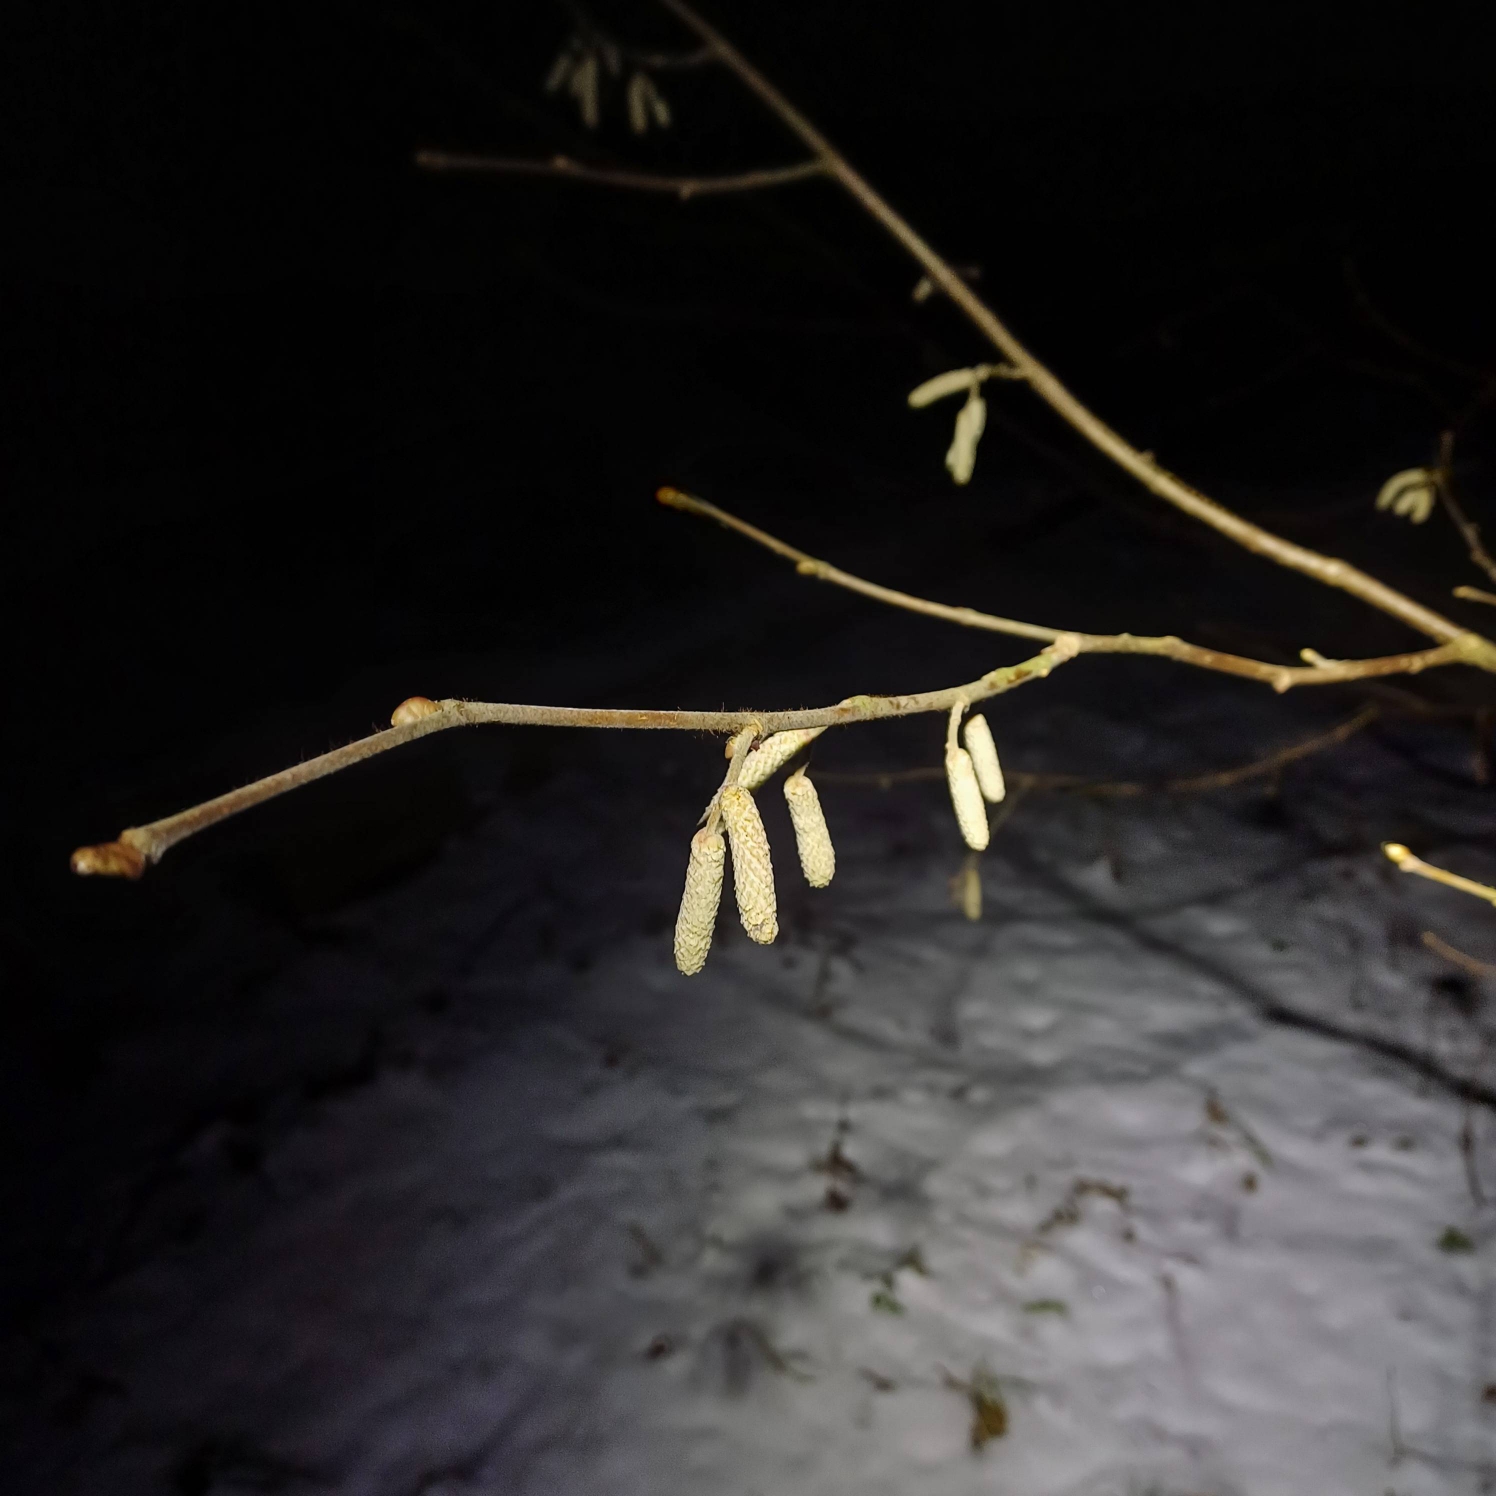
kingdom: Plantae
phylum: Tracheophyta
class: Magnoliopsida
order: Fagales
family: Betulaceae
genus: Corylus
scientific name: Corylus avellana
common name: Hassel
